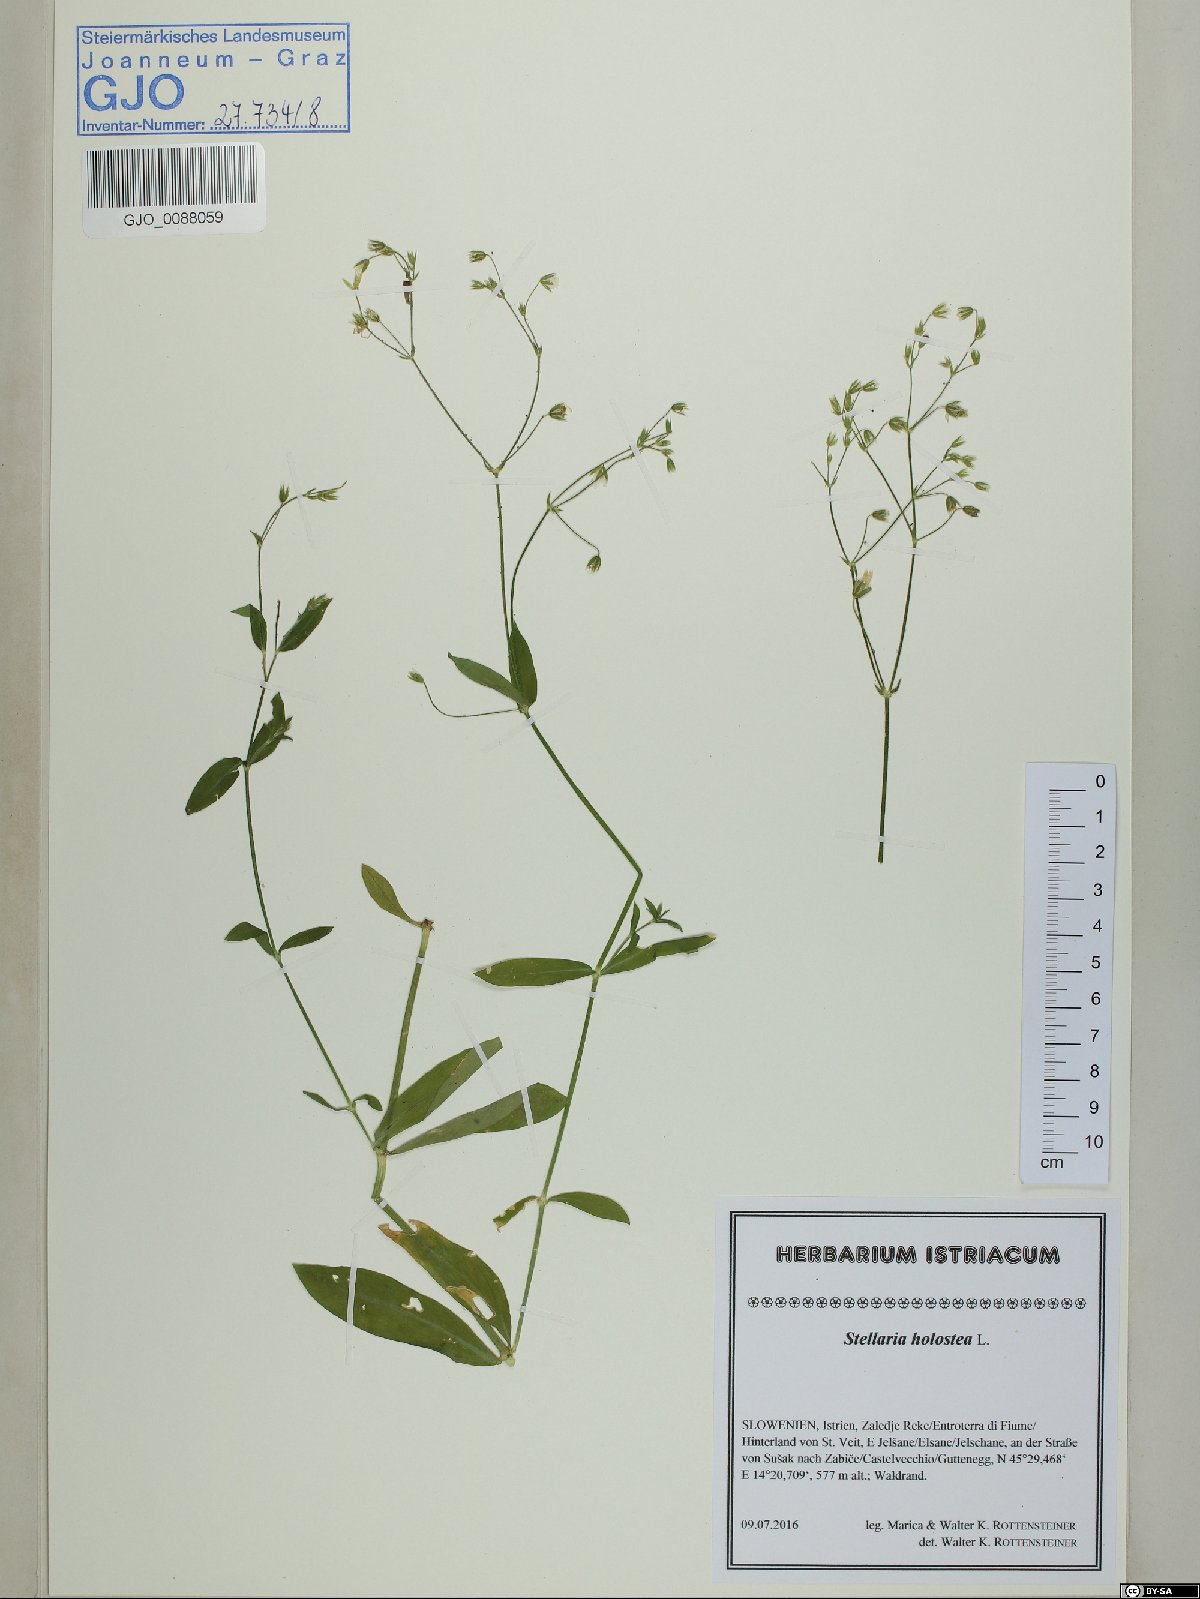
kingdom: Plantae
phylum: Tracheophyta
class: Magnoliopsida
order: Caryophyllales
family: Caryophyllaceae
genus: Rabelera
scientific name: Rabelera holostea
